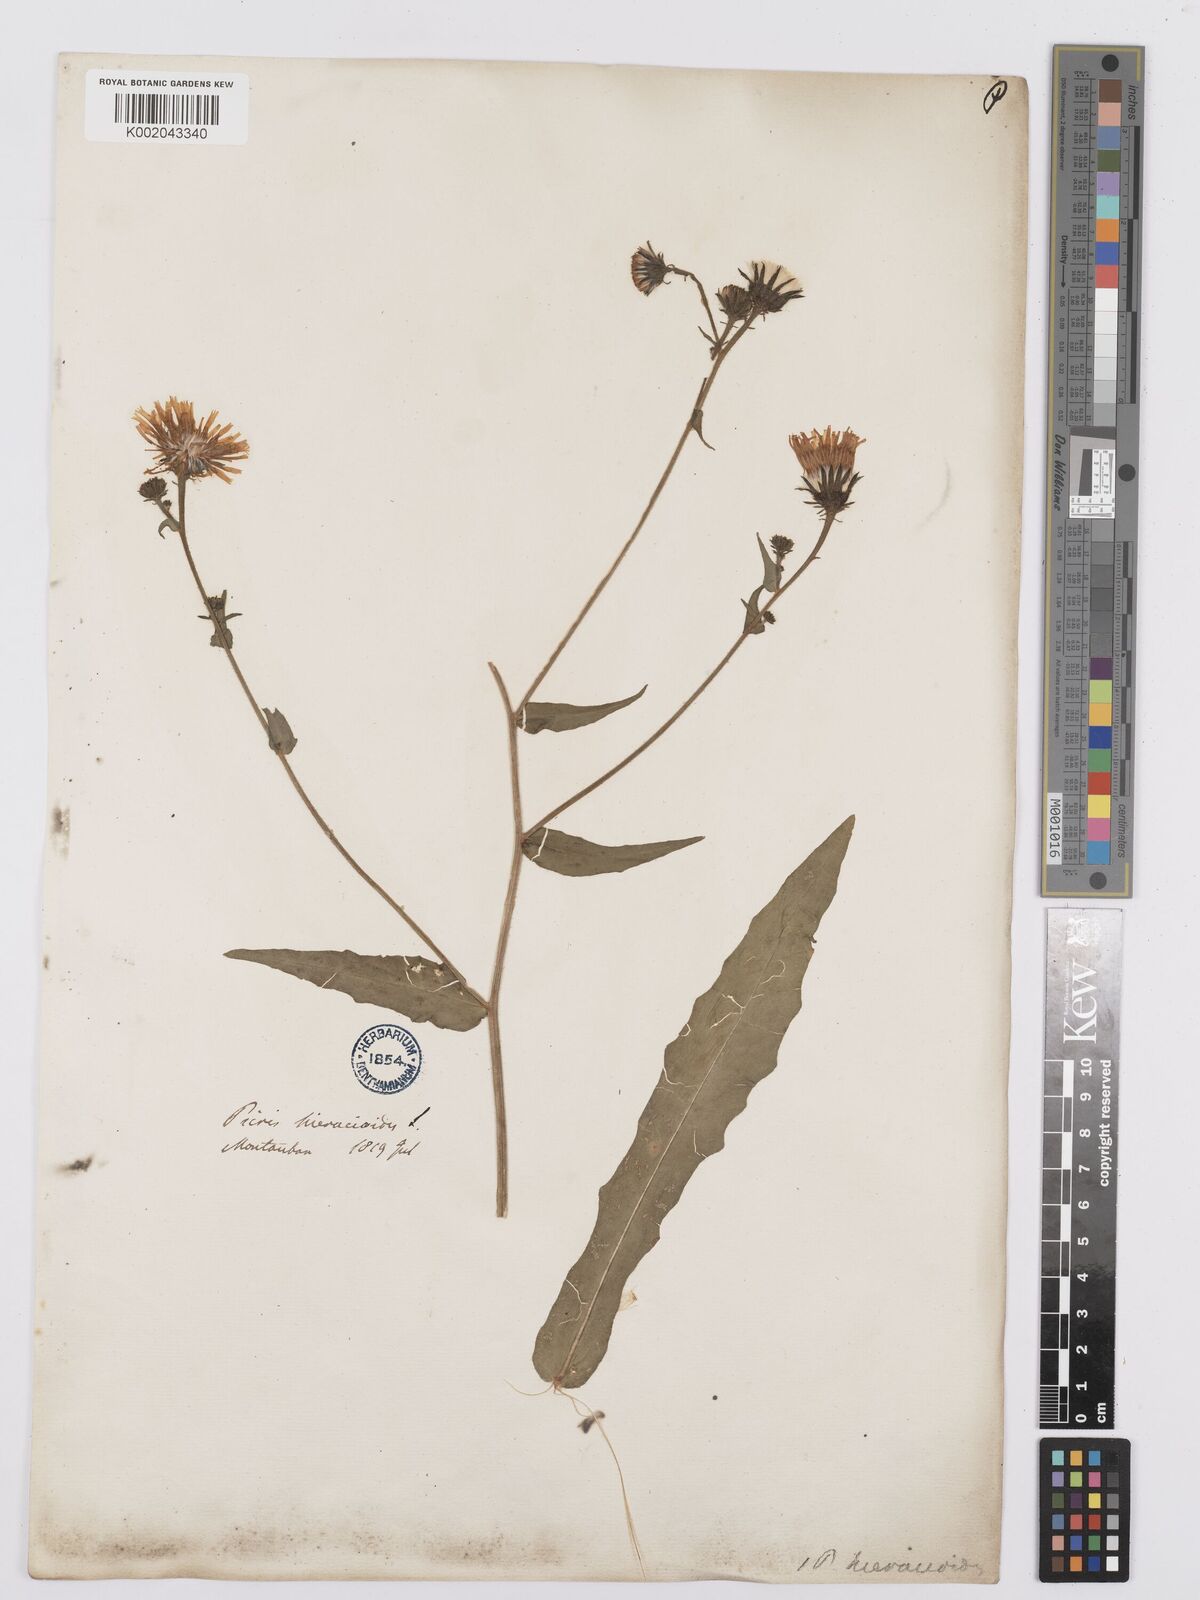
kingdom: Plantae
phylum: Tracheophyta
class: Magnoliopsida
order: Asterales
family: Asteraceae
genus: Picris
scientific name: Picris hieracioides
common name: Hawkweed oxtongue
